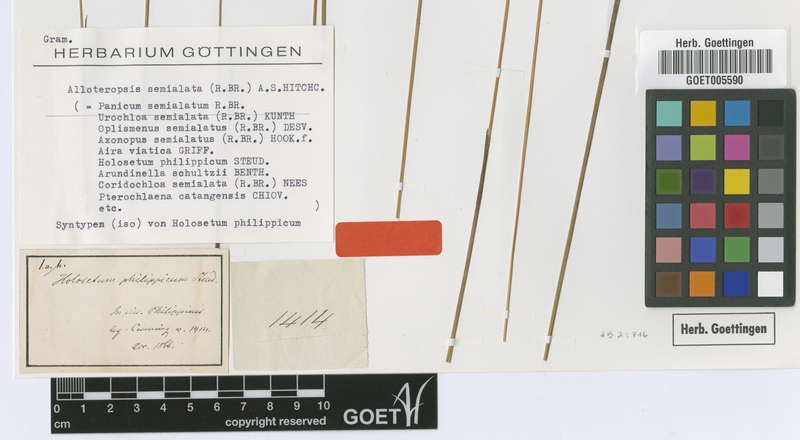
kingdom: Plantae
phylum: Tracheophyta
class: Liliopsida
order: Poales
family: Poaceae
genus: Alloteropsis
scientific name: Alloteropsis semialata
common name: Cockatoo grass
